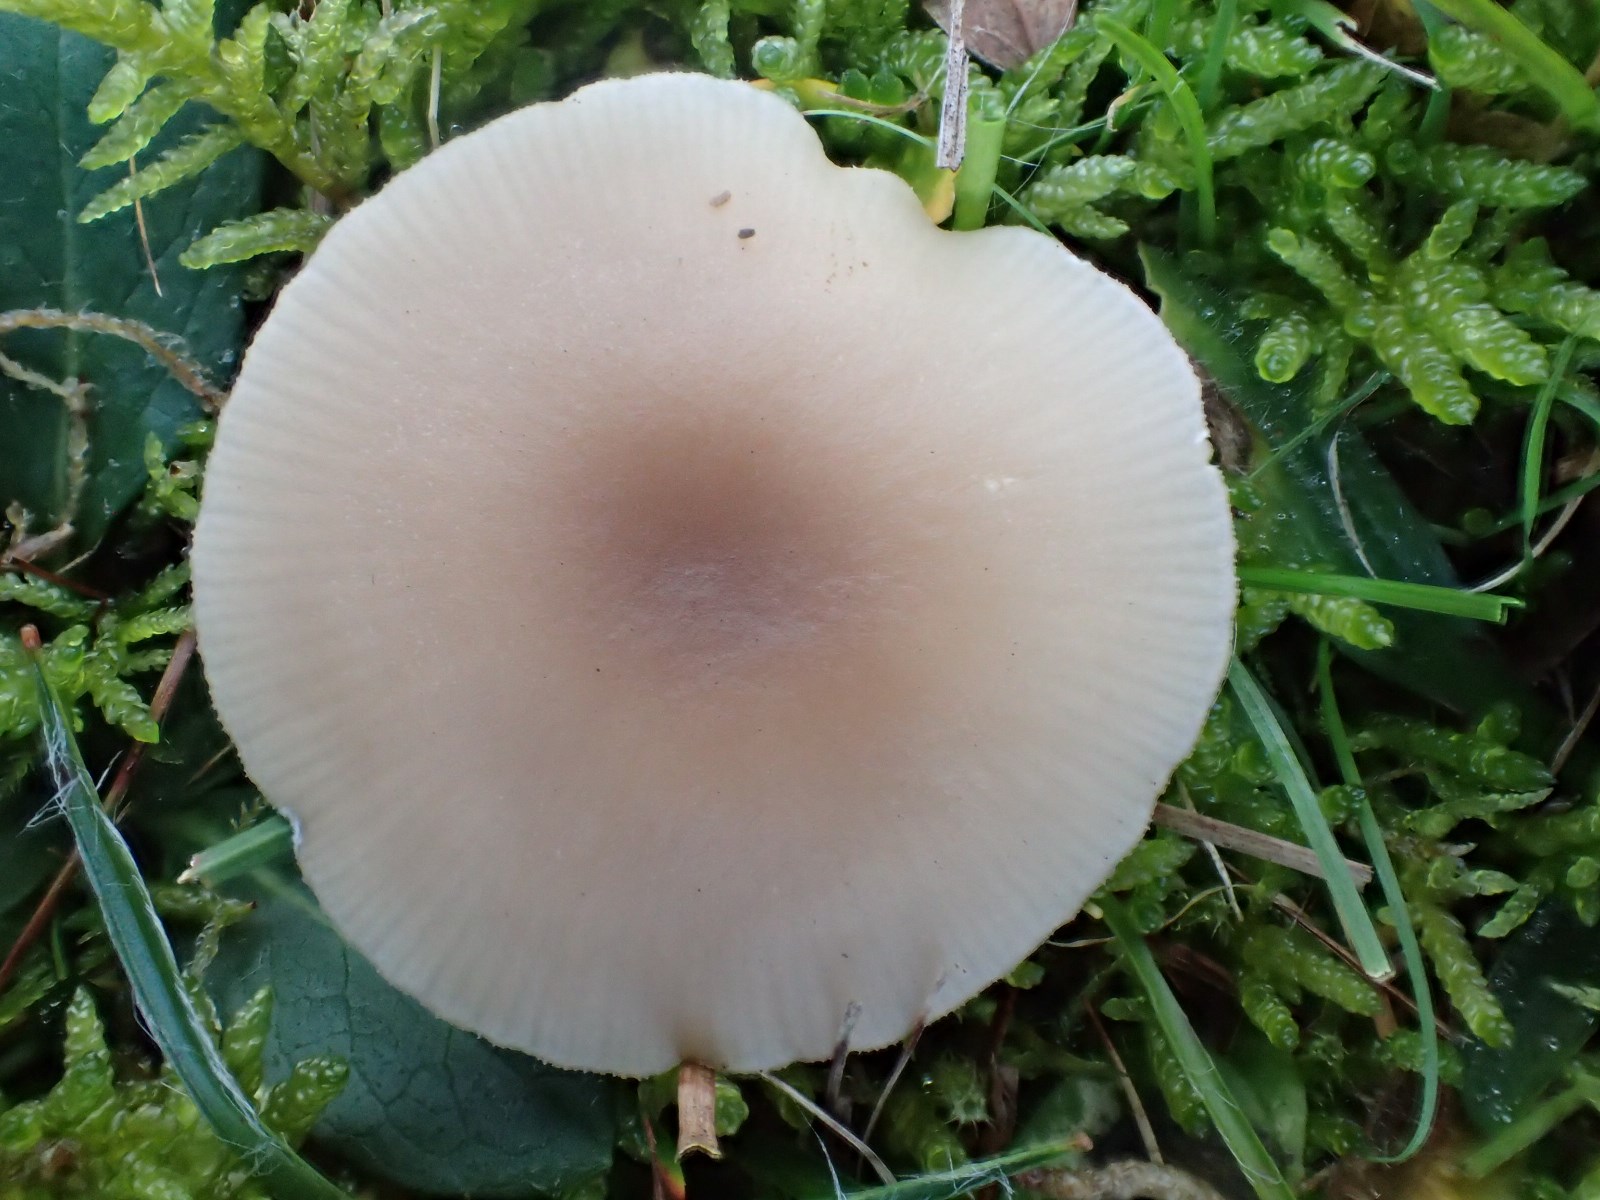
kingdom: Fungi
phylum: Basidiomycota
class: Agaricomycetes
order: Agaricales
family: Tricholomataceae
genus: Clitocybe
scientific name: Clitocybe fragrans
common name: vellugtende tragthat
